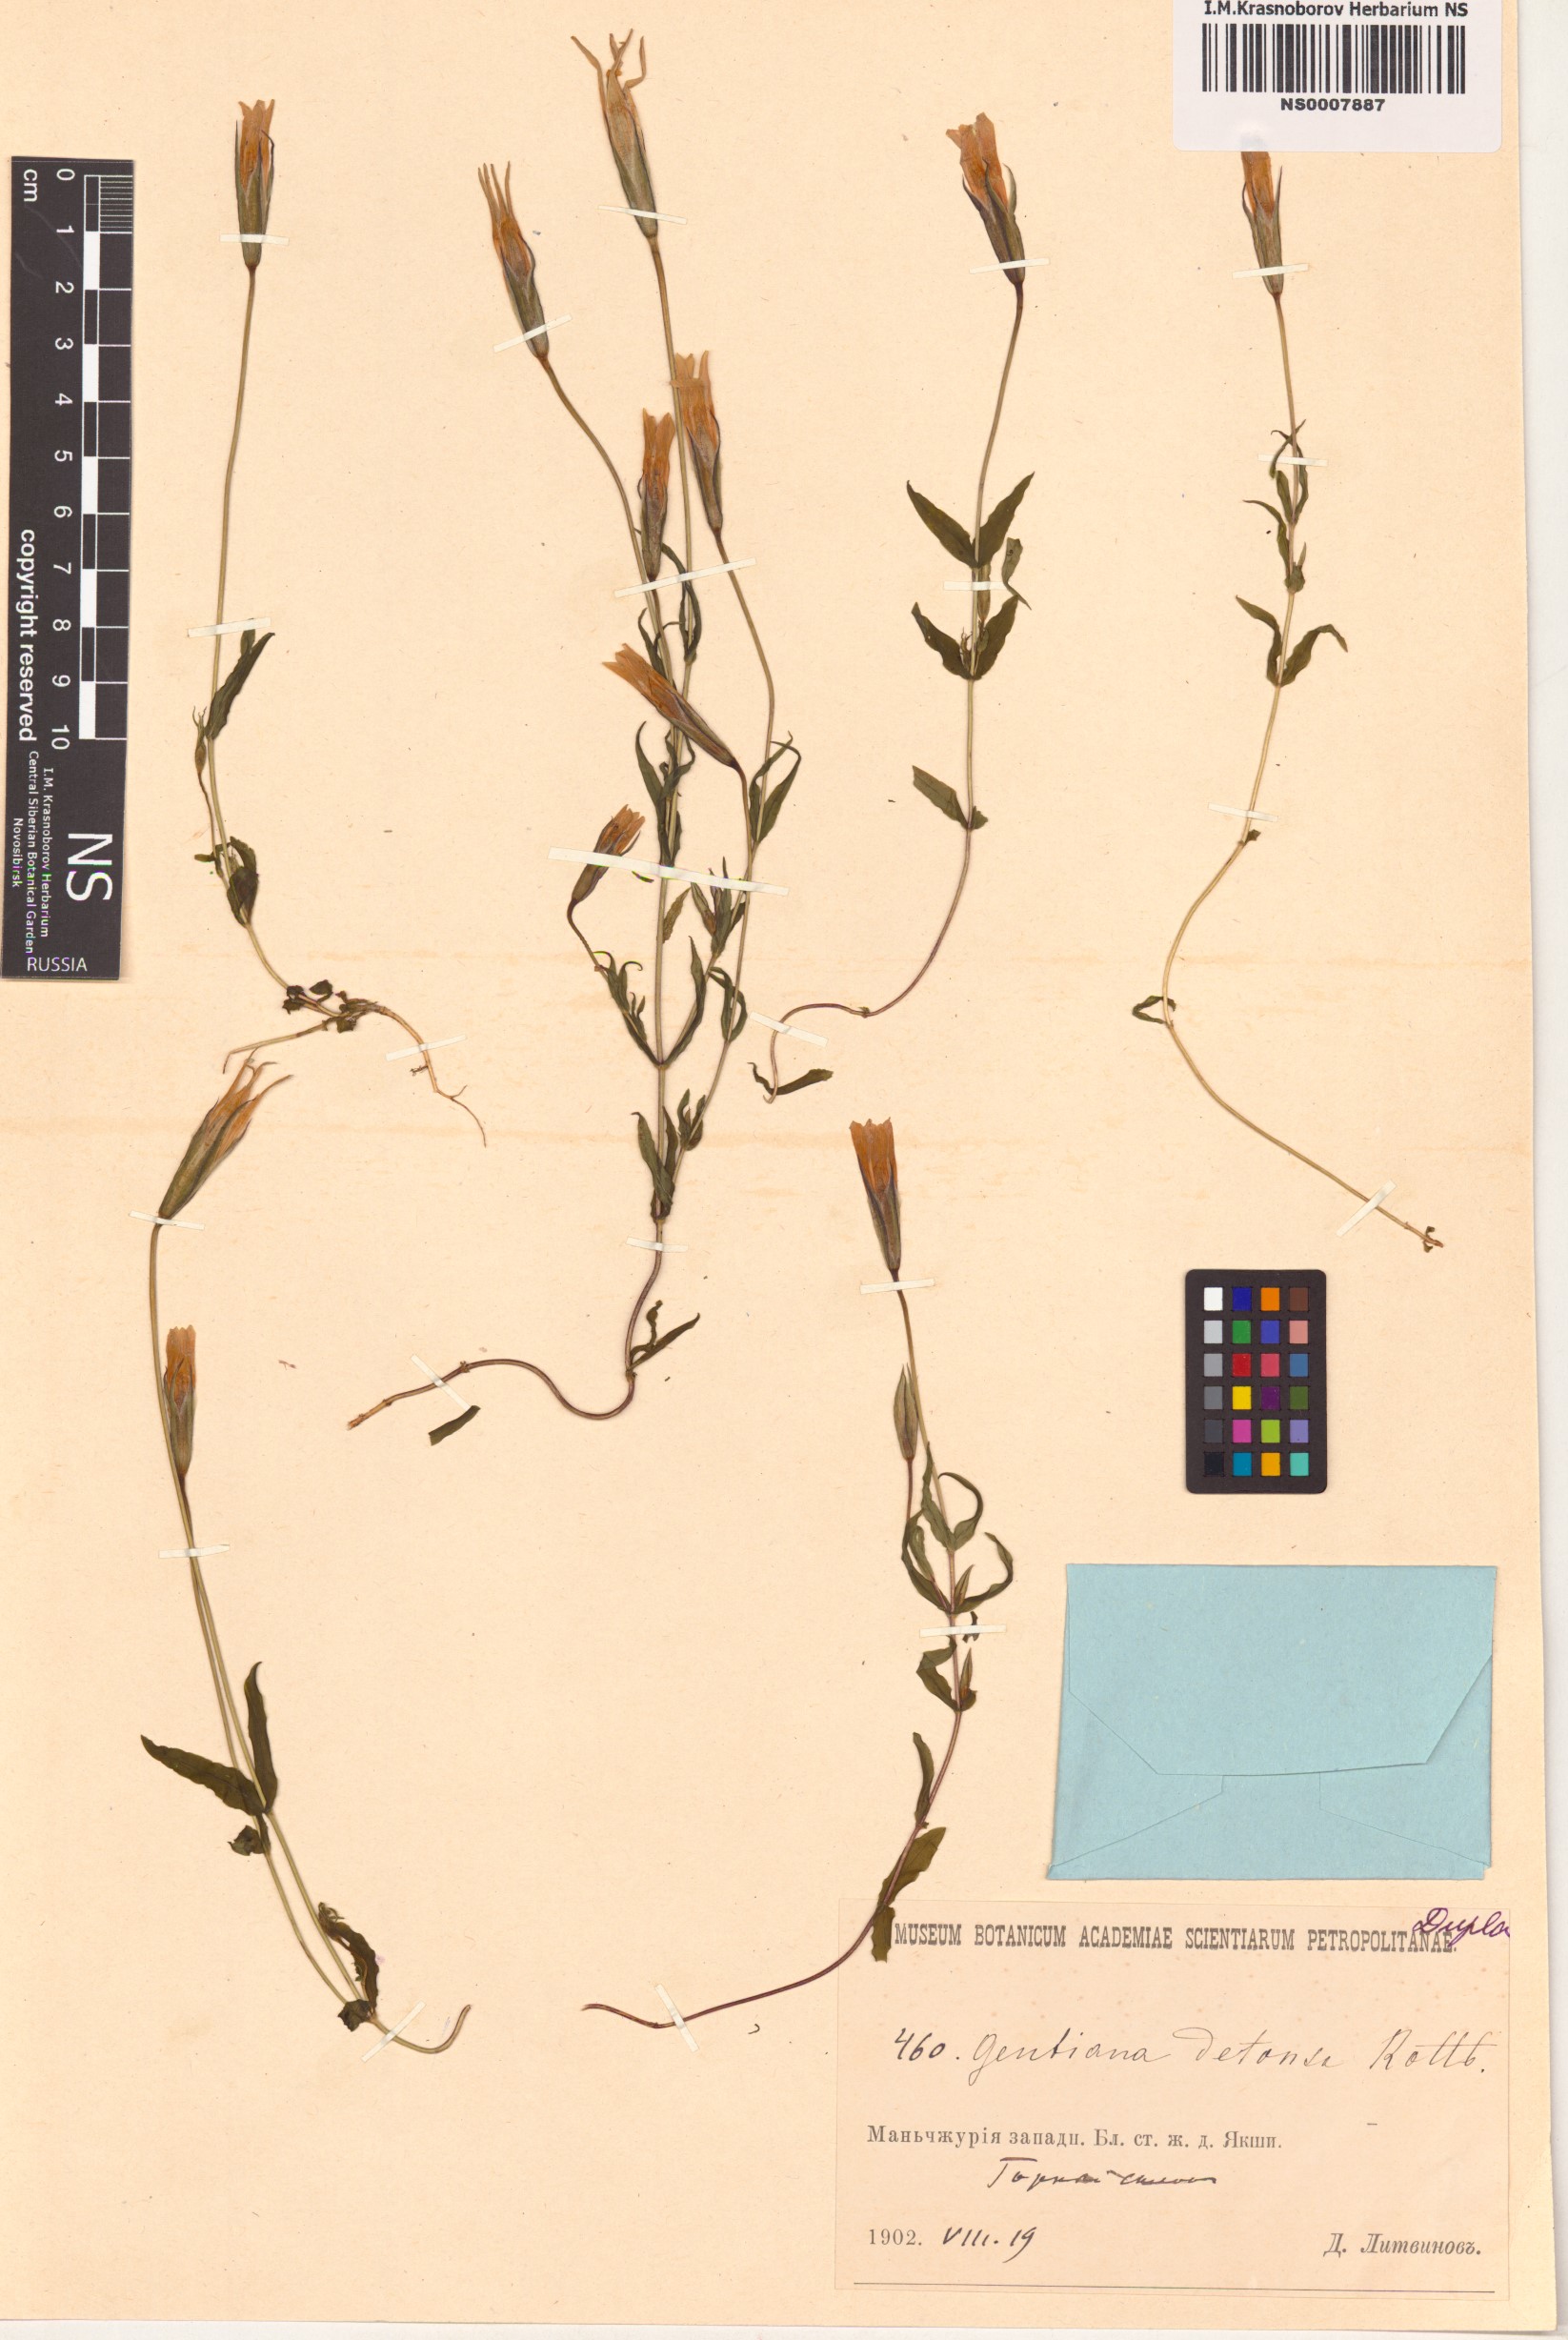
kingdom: Plantae
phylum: Tracheophyta
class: Magnoliopsida
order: Gentianales
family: Gentianaceae
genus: Gentianopsis
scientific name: Gentianopsis detonsa
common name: Fringed-gentian
